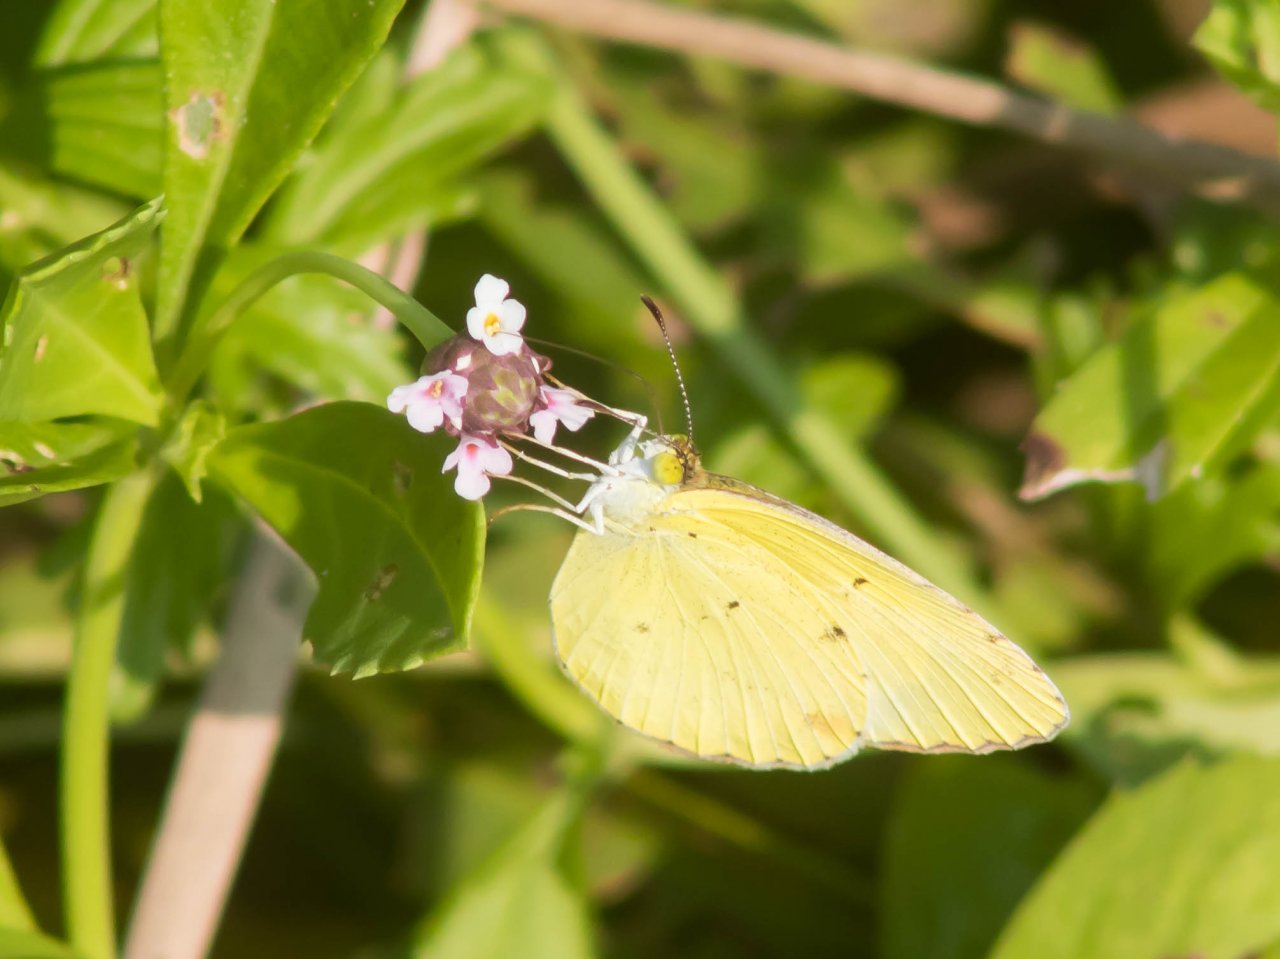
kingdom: Animalia
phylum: Arthropoda
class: Insecta
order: Lepidoptera
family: Pieridae
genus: Pyrisitia
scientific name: Pyrisitia lisa
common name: Little Yellow
